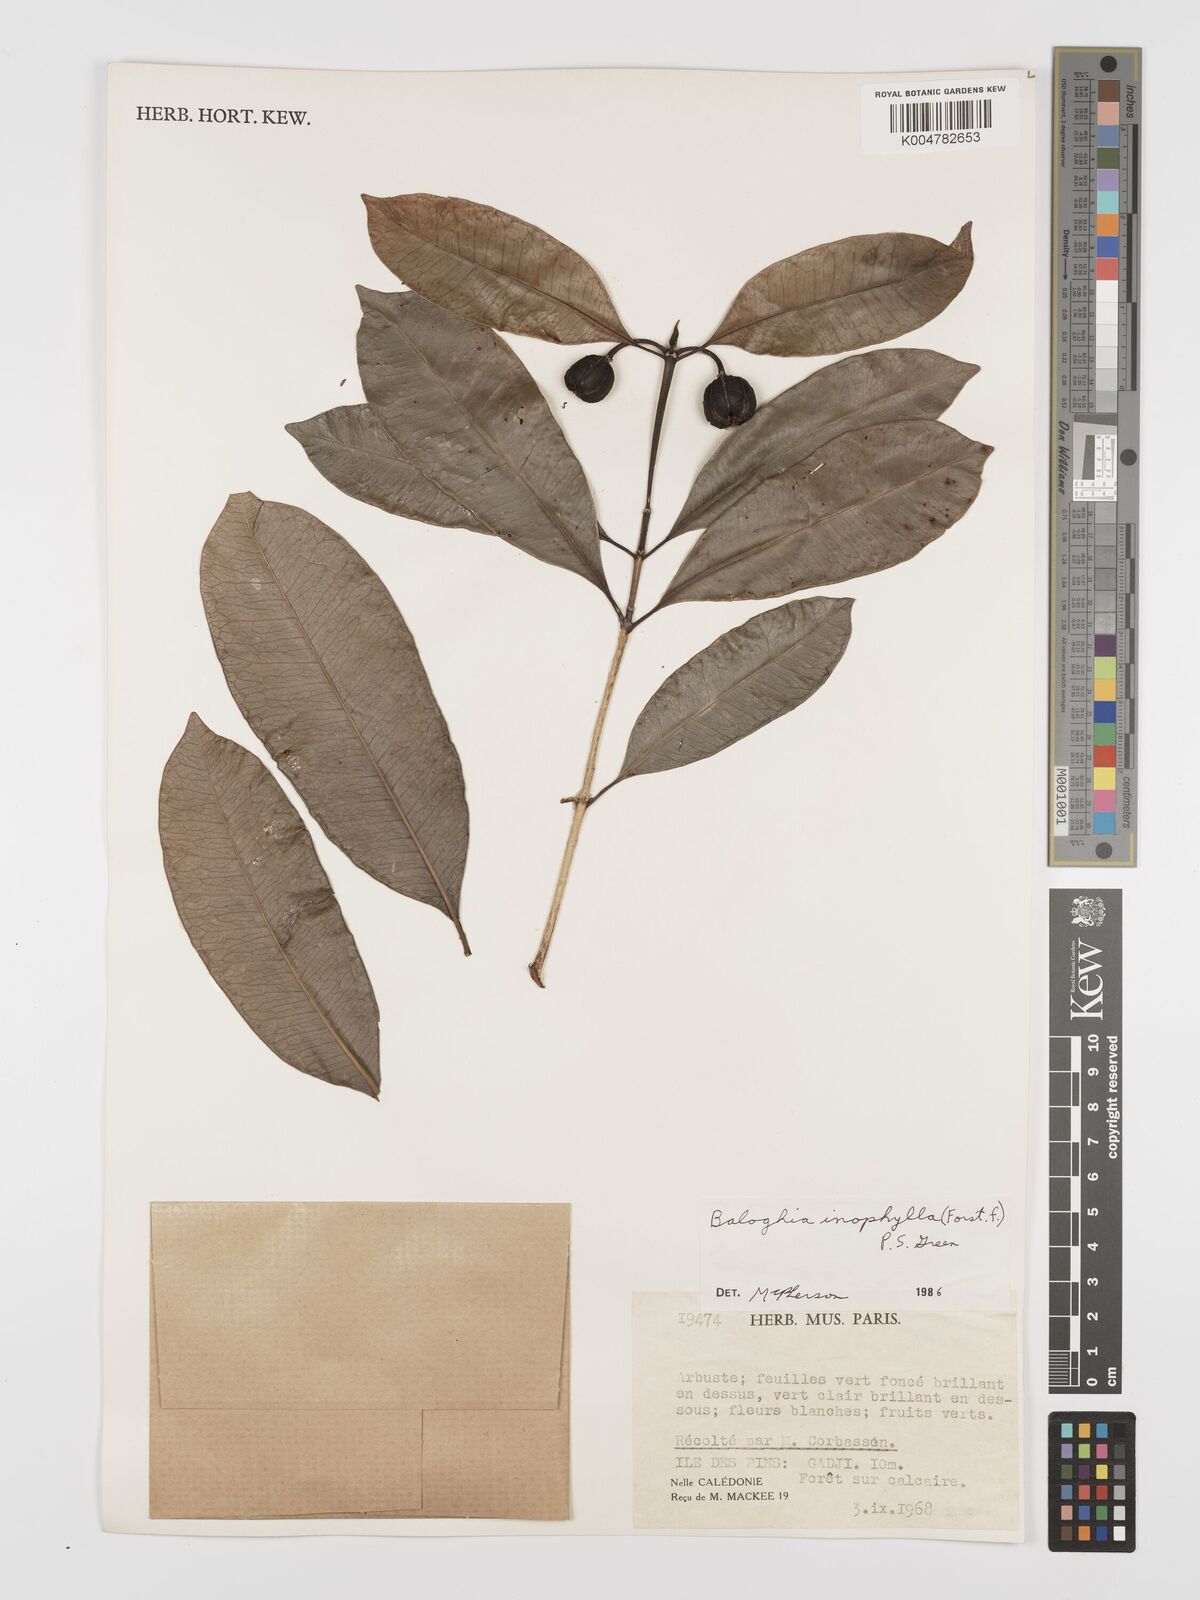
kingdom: Plantae
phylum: Tracheophyta
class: Magnoliopsida
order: Malpighiales
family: Euphorbiaceae
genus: Baloghia
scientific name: Baloghia inophylla
